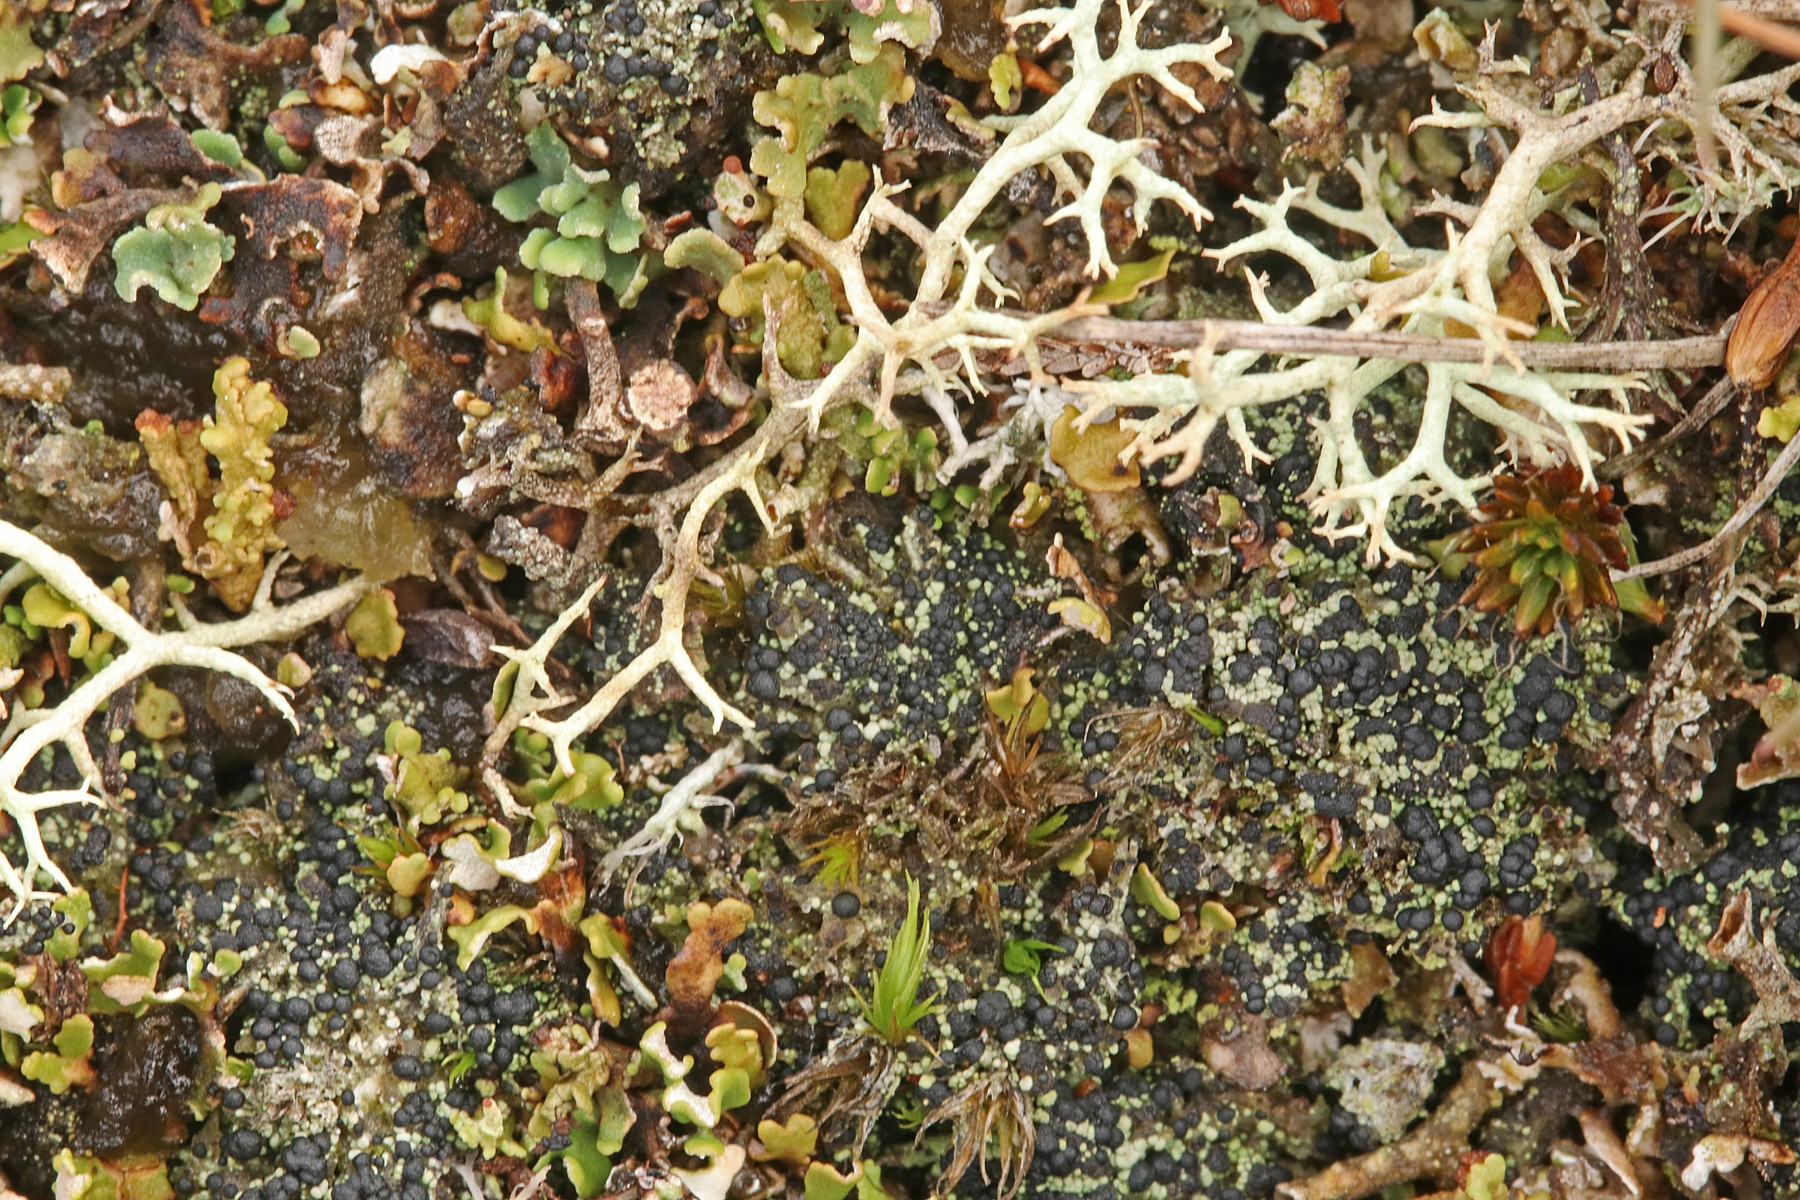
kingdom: Fungi
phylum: Ascomycota
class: Lecanoromycetes
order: Lecanorales
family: Byssolomataceae
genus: Micarea
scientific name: Micarea lignaria
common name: tørve-knaplav
